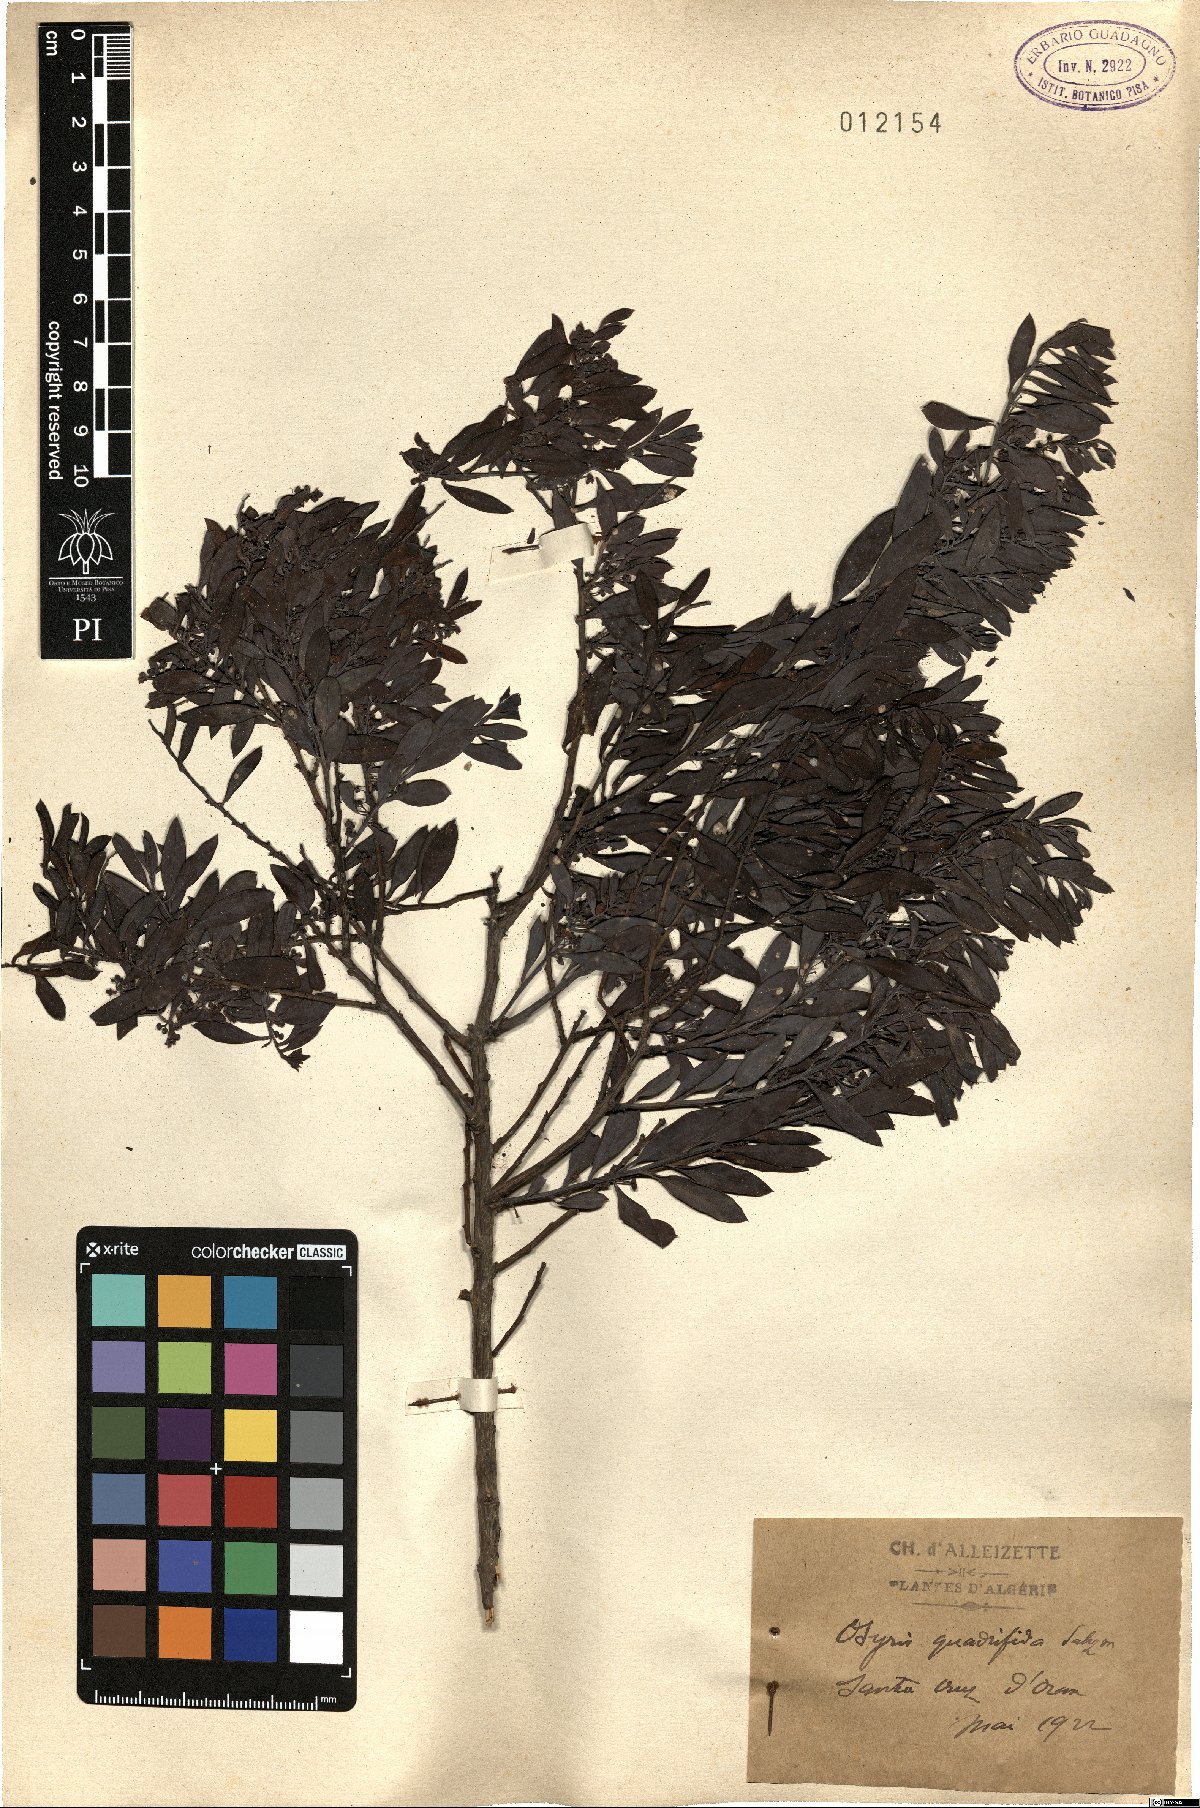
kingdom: Plantae
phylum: Tracheophyta
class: Magnoliopsida
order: Santalales
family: Santalaceae
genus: Osyris
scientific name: Osyris quadripartita
